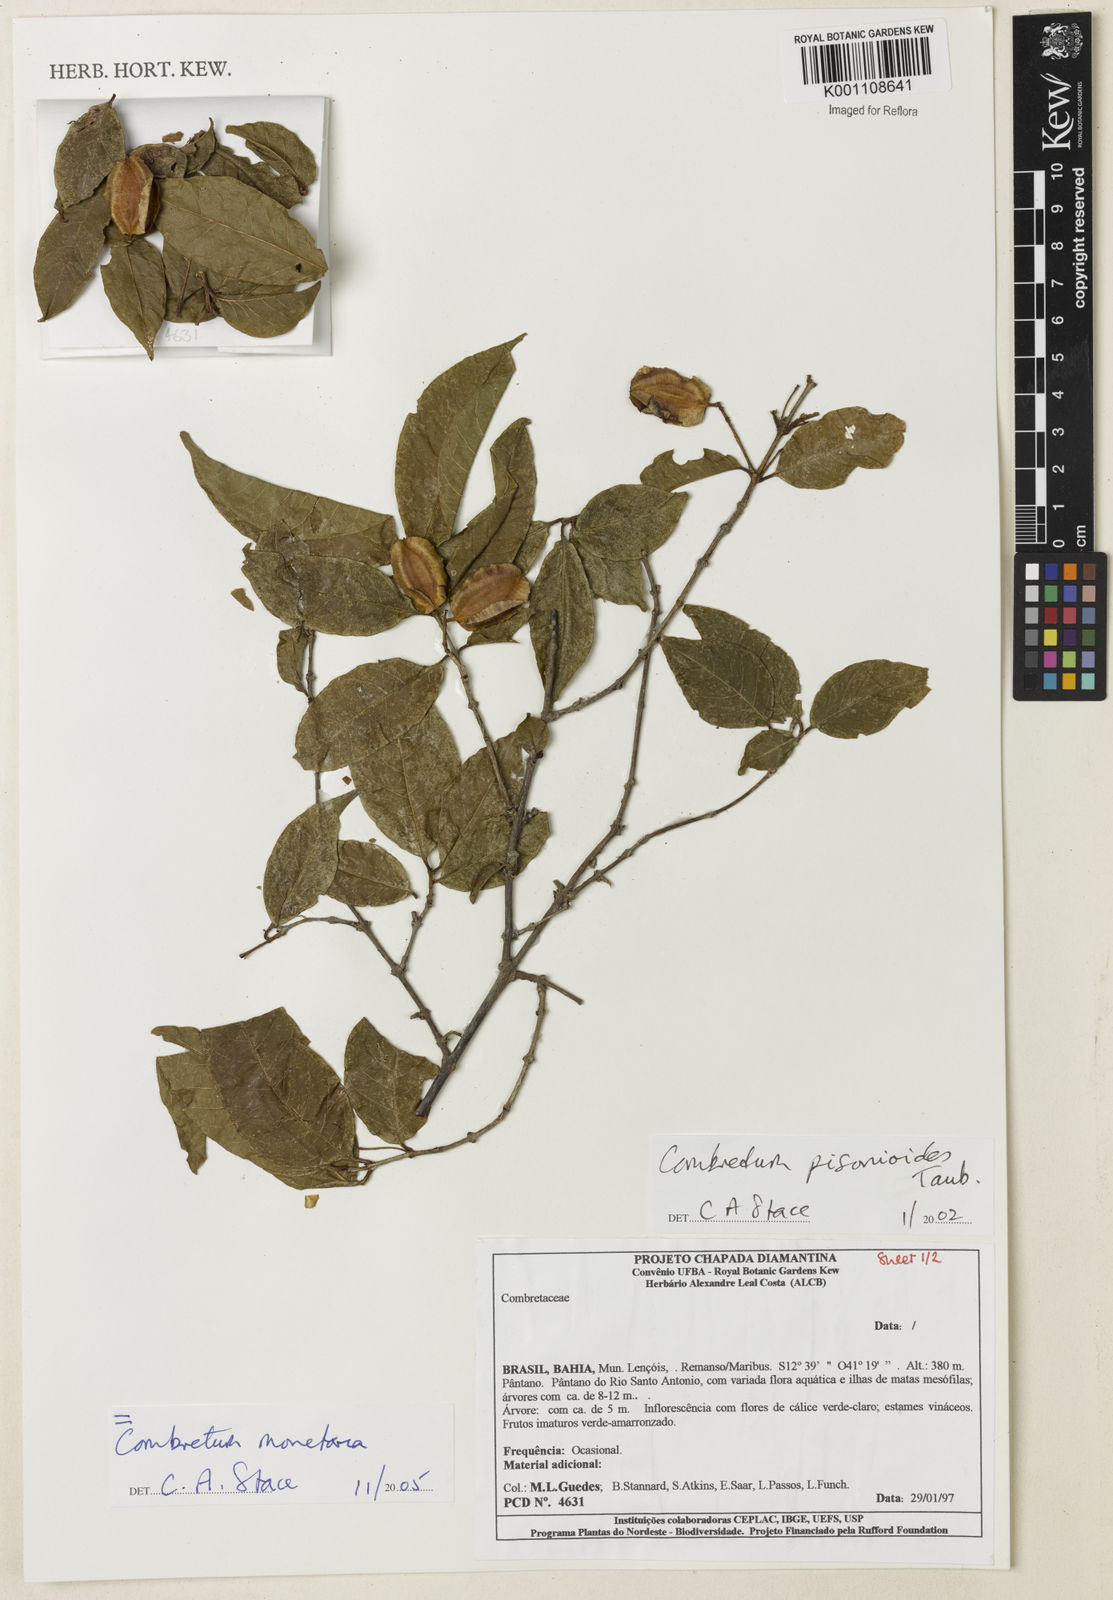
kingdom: Plantae
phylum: Tracheophyta
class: Magnoliopsida
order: Myrtales
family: Combretaceae
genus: Combretum
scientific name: Combretum pisonioides
